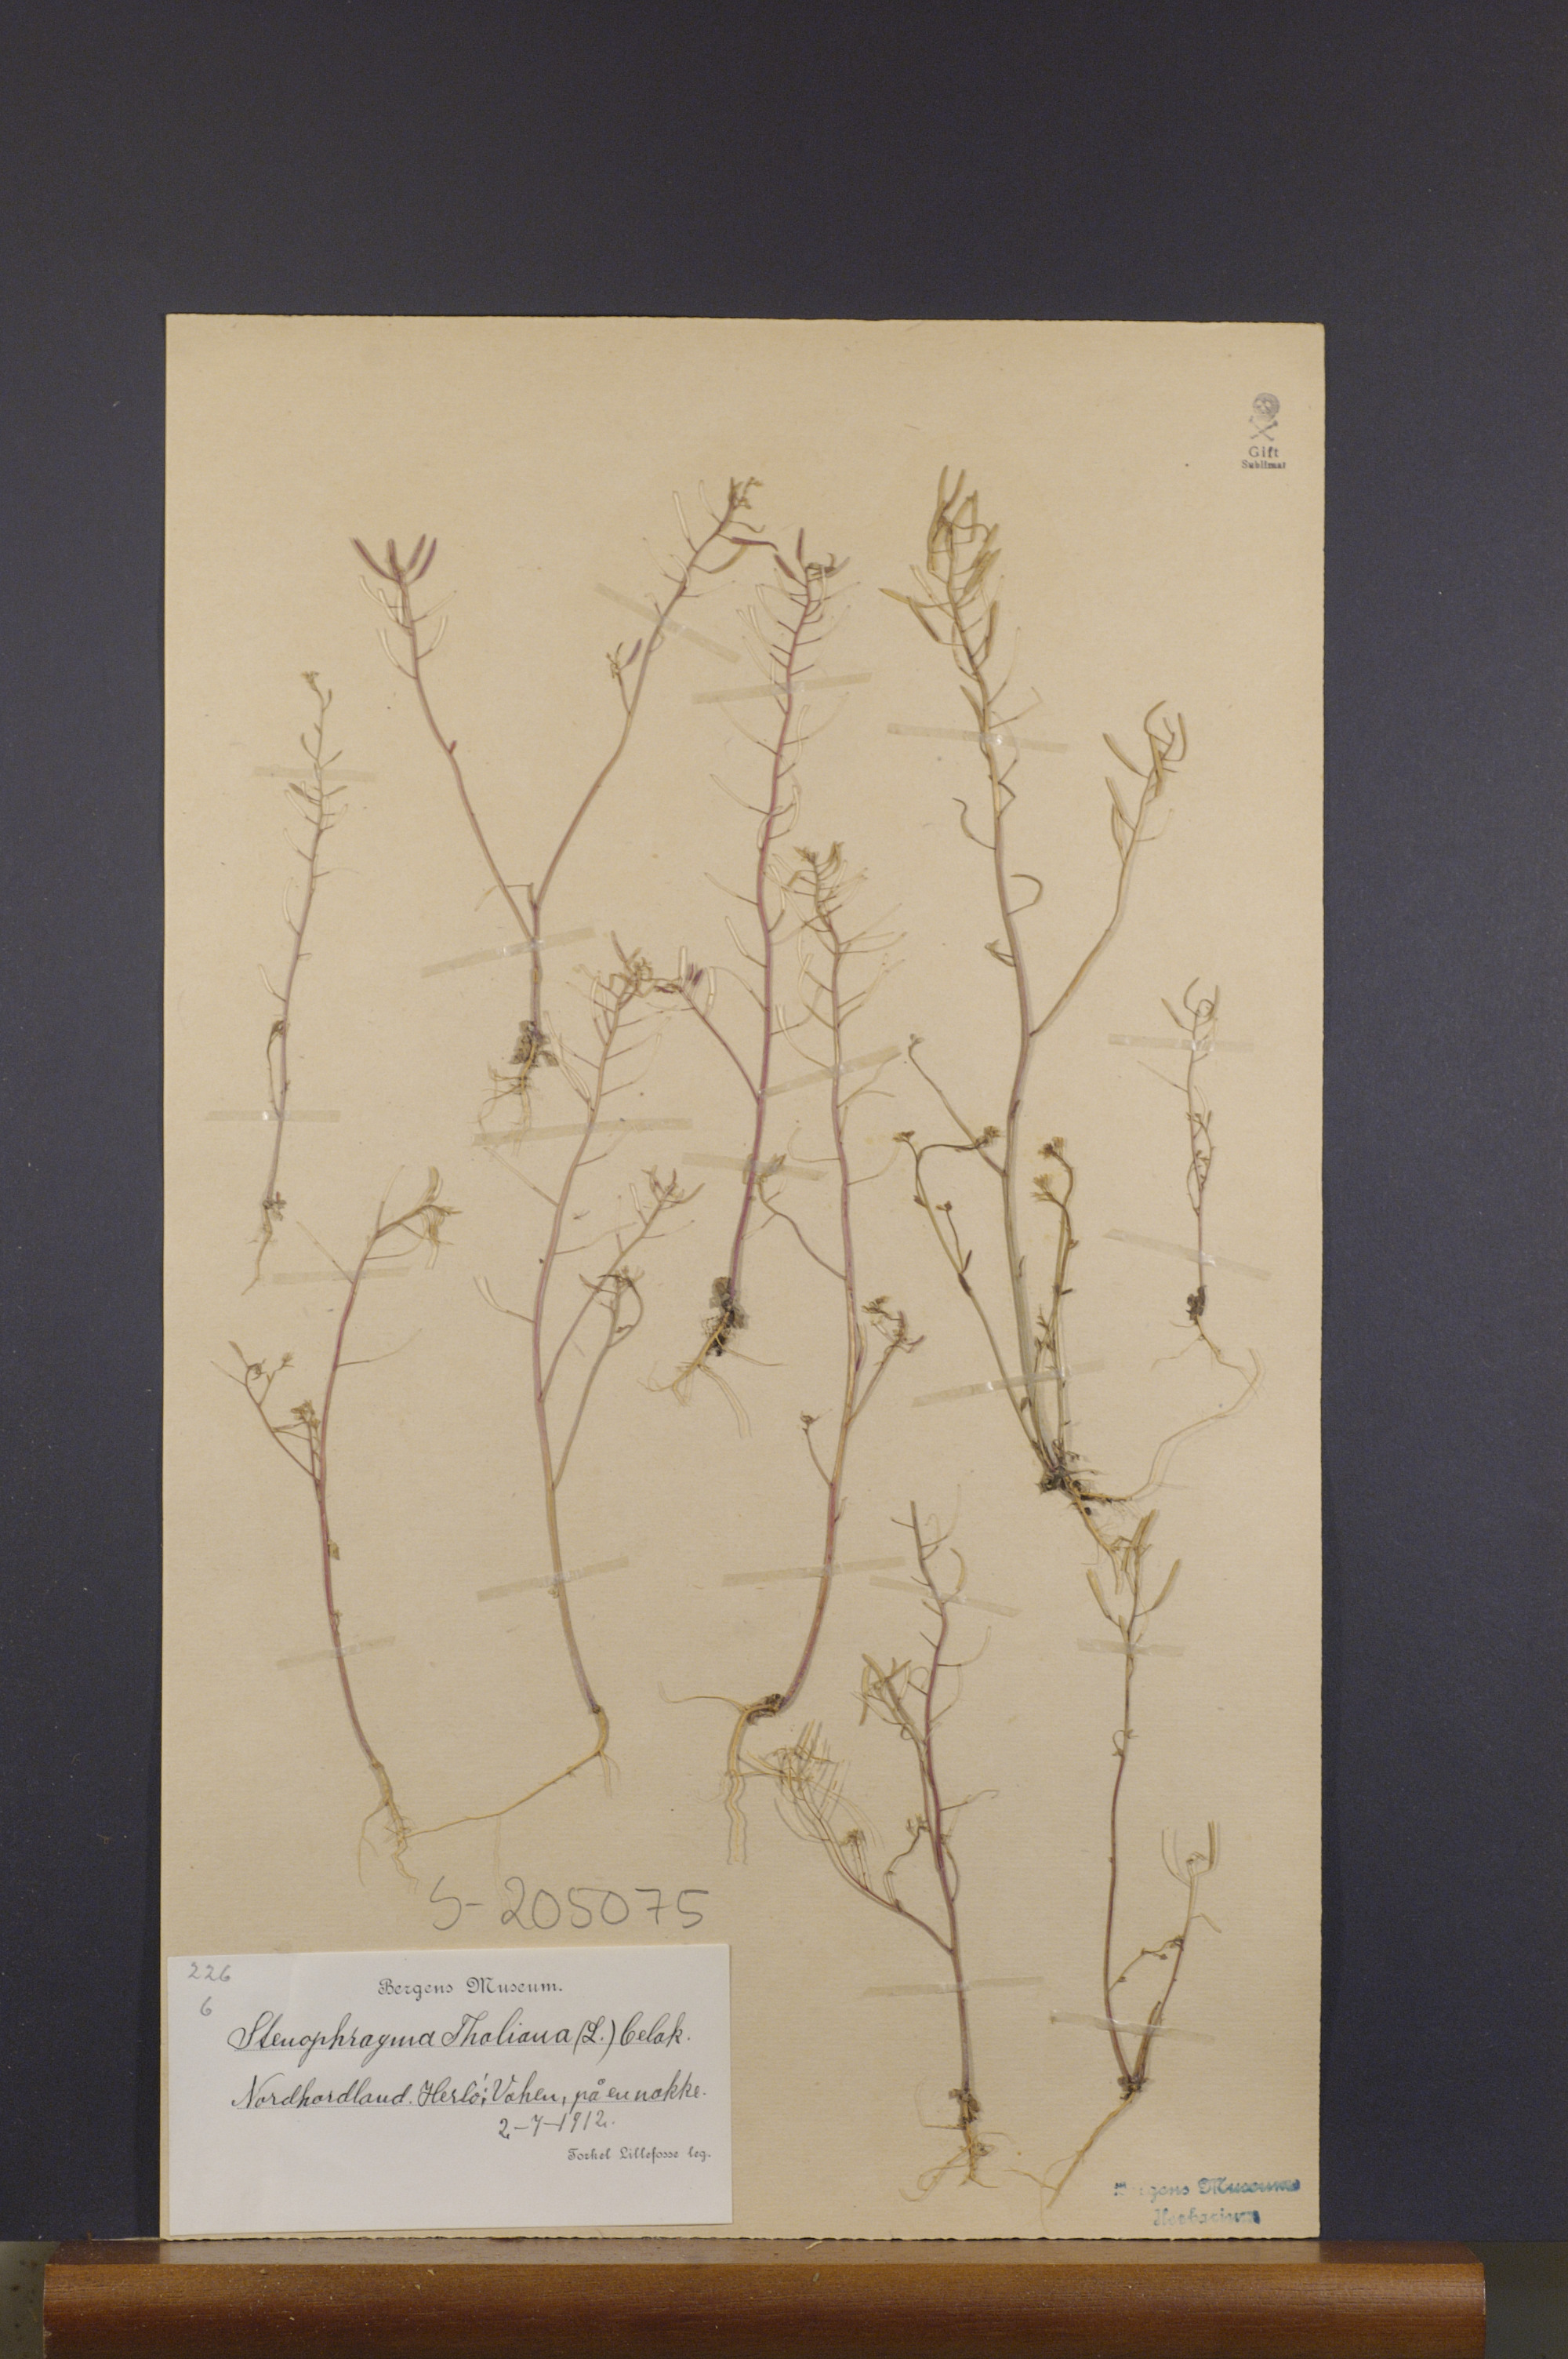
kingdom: Plantae
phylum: Tracheophyta
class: Magnoliopsida
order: Brassicales
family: Brassicaceae
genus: Arabidopsis
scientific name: Arabidopsis thaliana
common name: Thale cress
